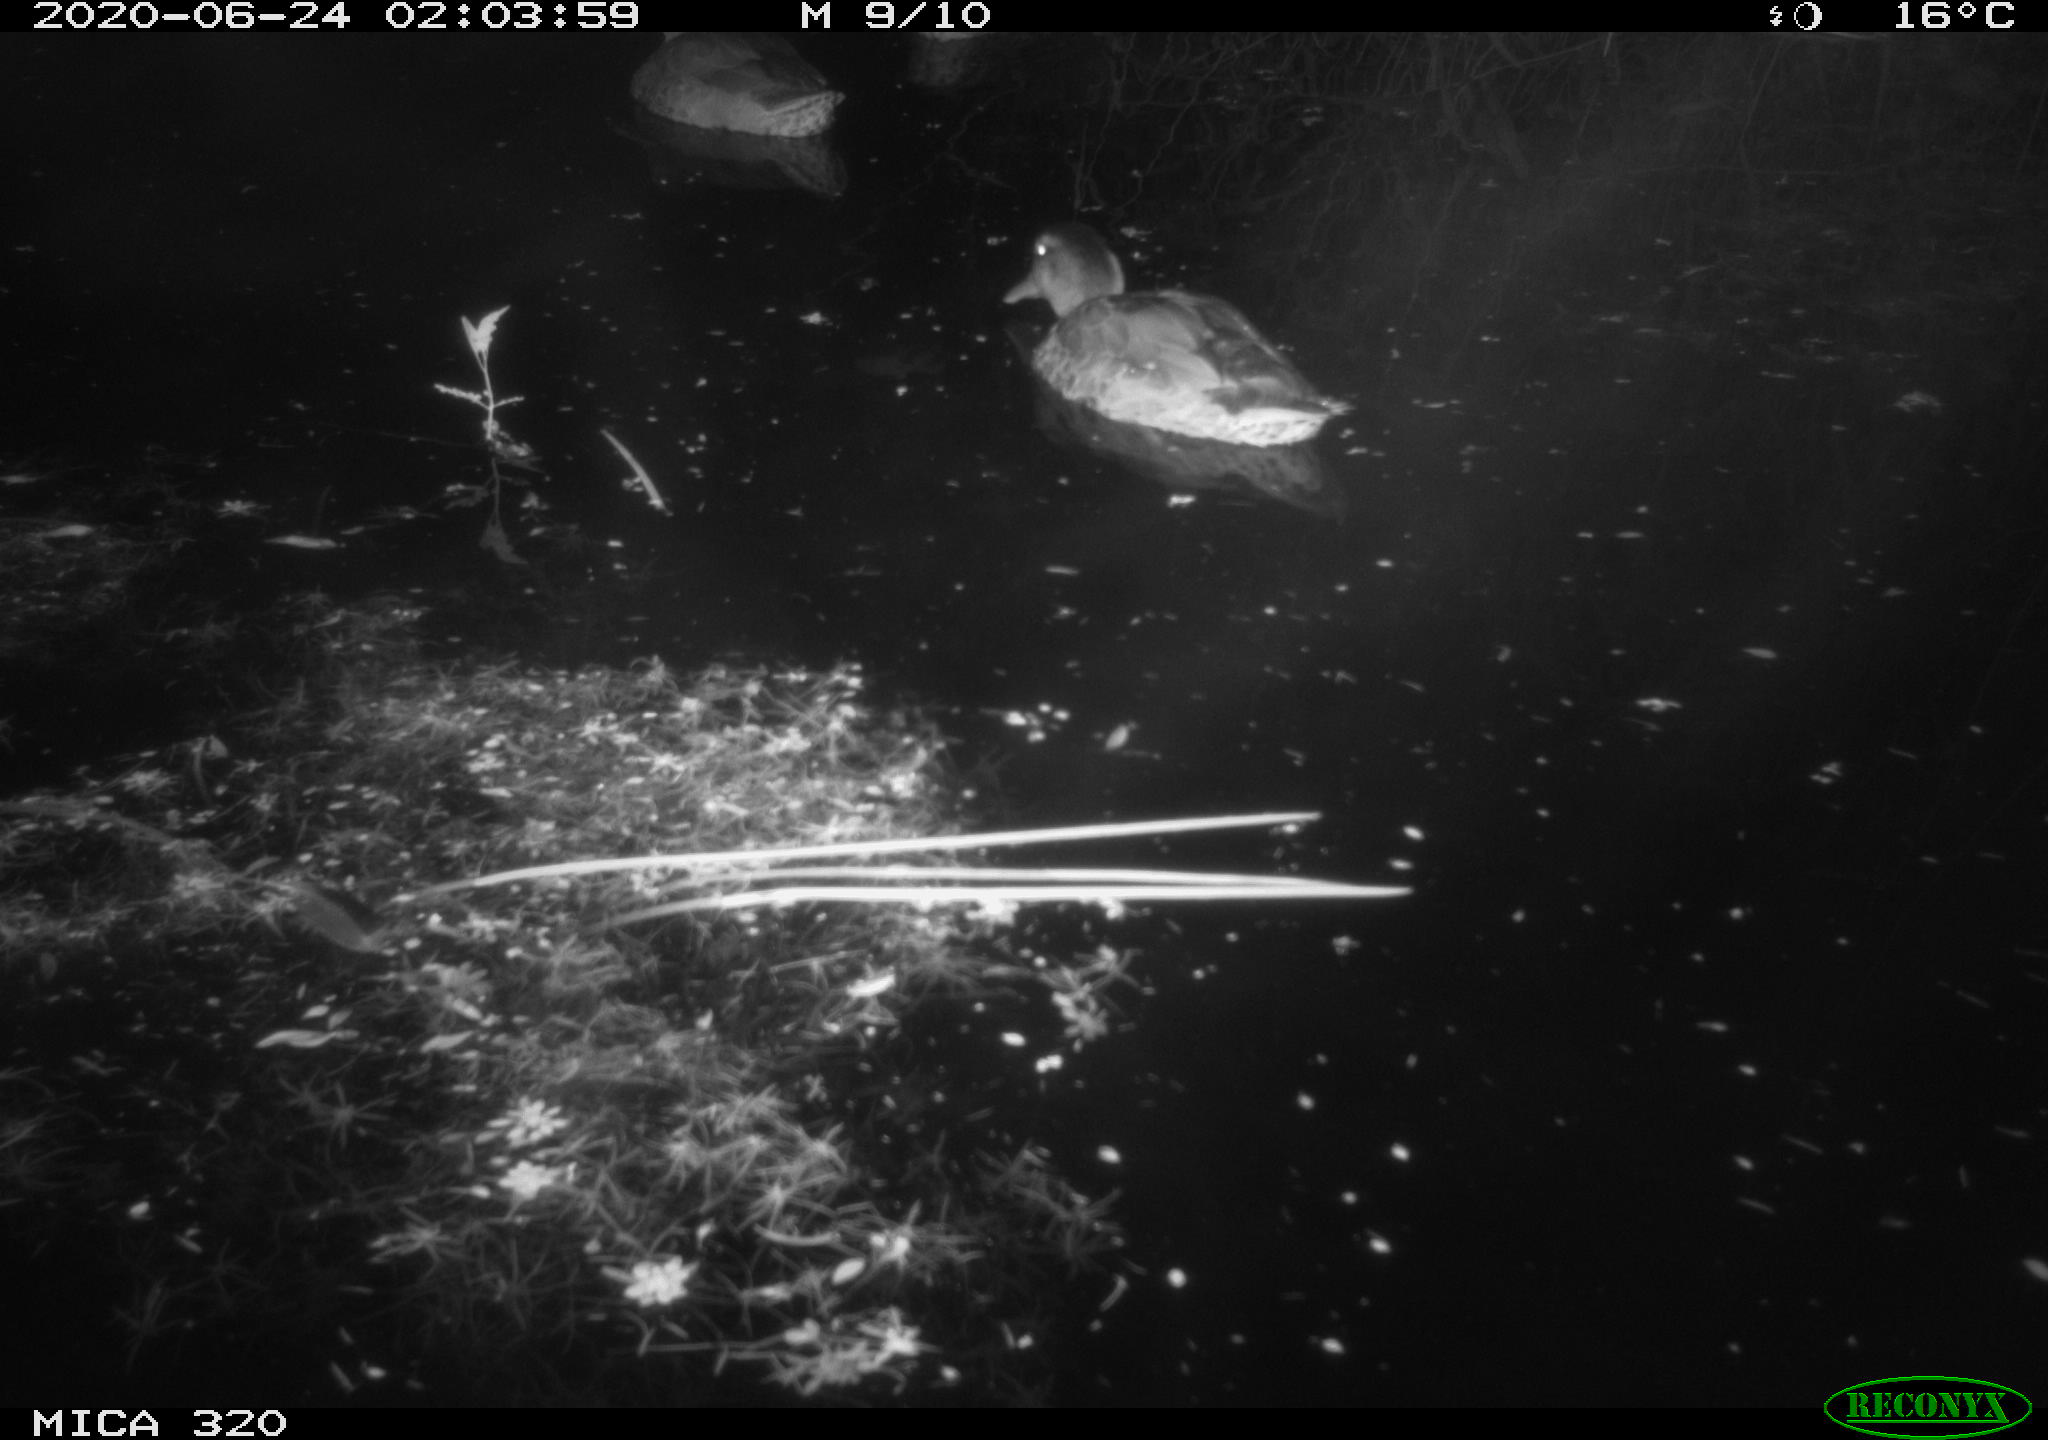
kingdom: Animalia
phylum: Chordata
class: Aves
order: Anseriformes
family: Anatidae
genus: Anas
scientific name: Anas platyrhynchos
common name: Mallard
